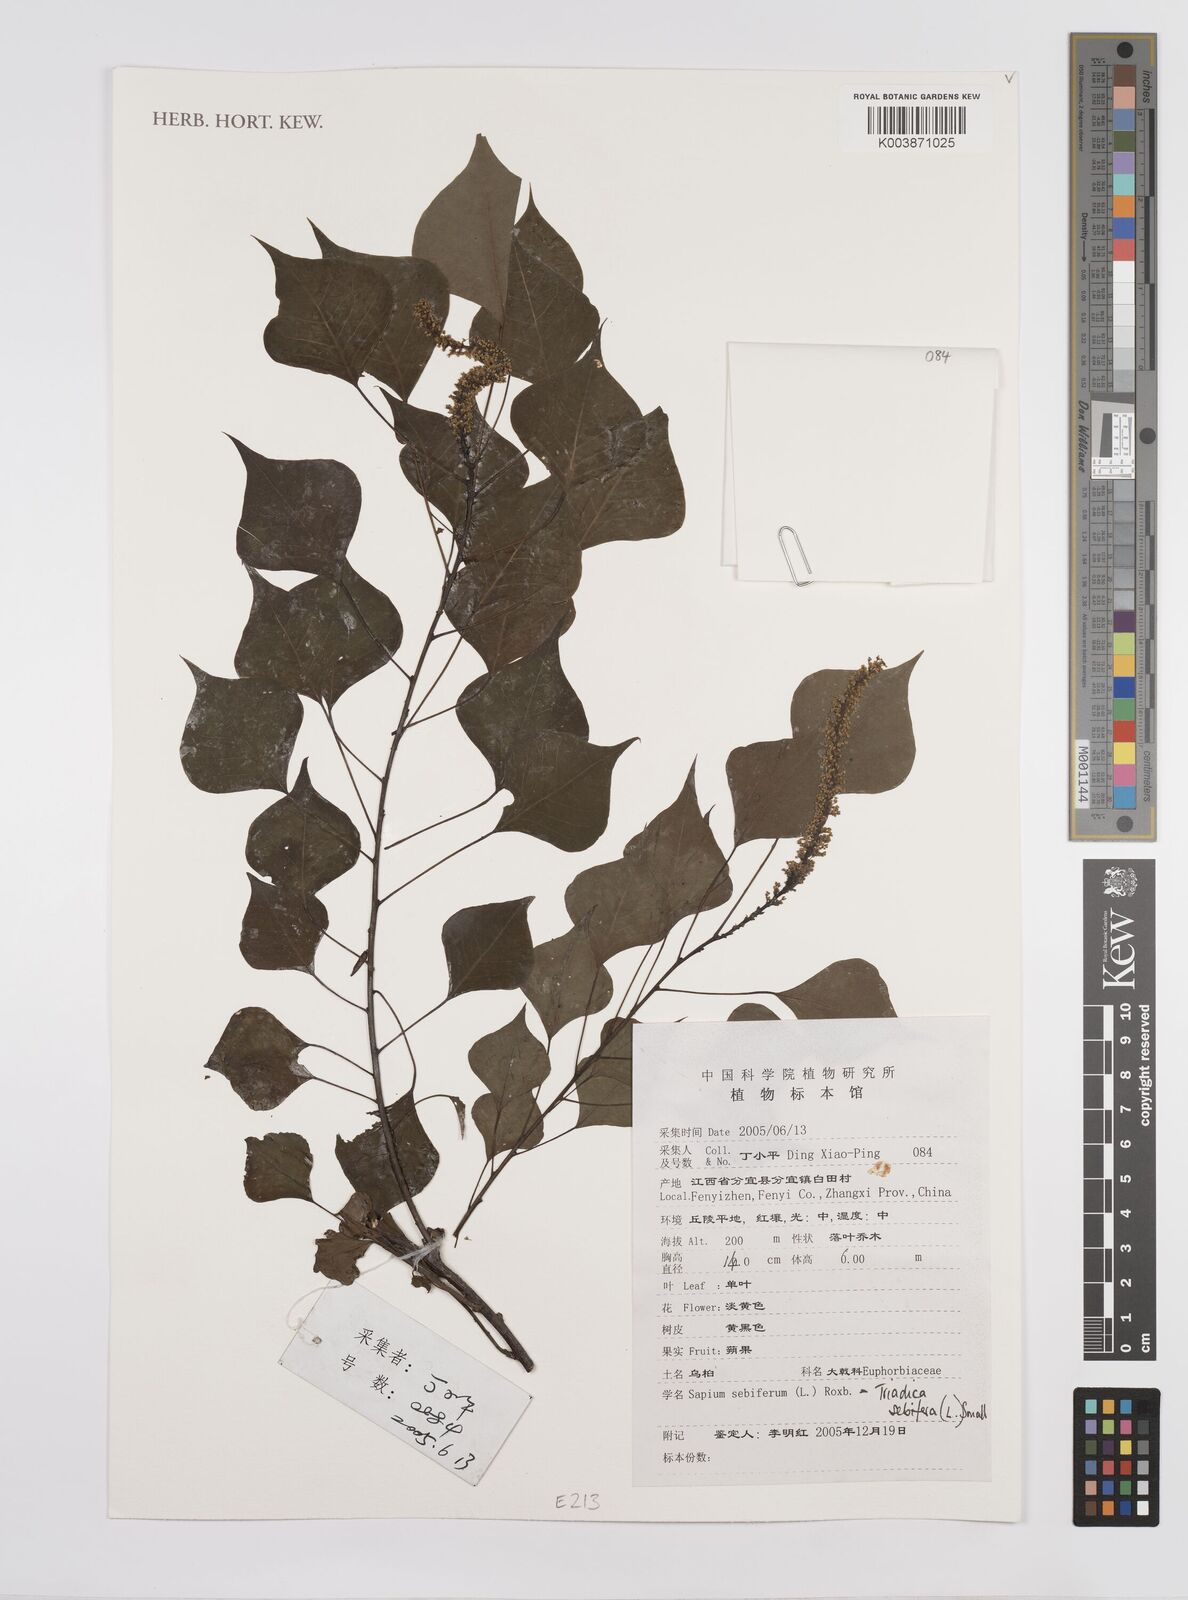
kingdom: Plantae
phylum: Tracheophyta
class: Magnoliopsida
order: Malpighiales
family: Euphorbiaceae
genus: Triadica
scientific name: Triadica sebifera
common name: Chinese tallow
